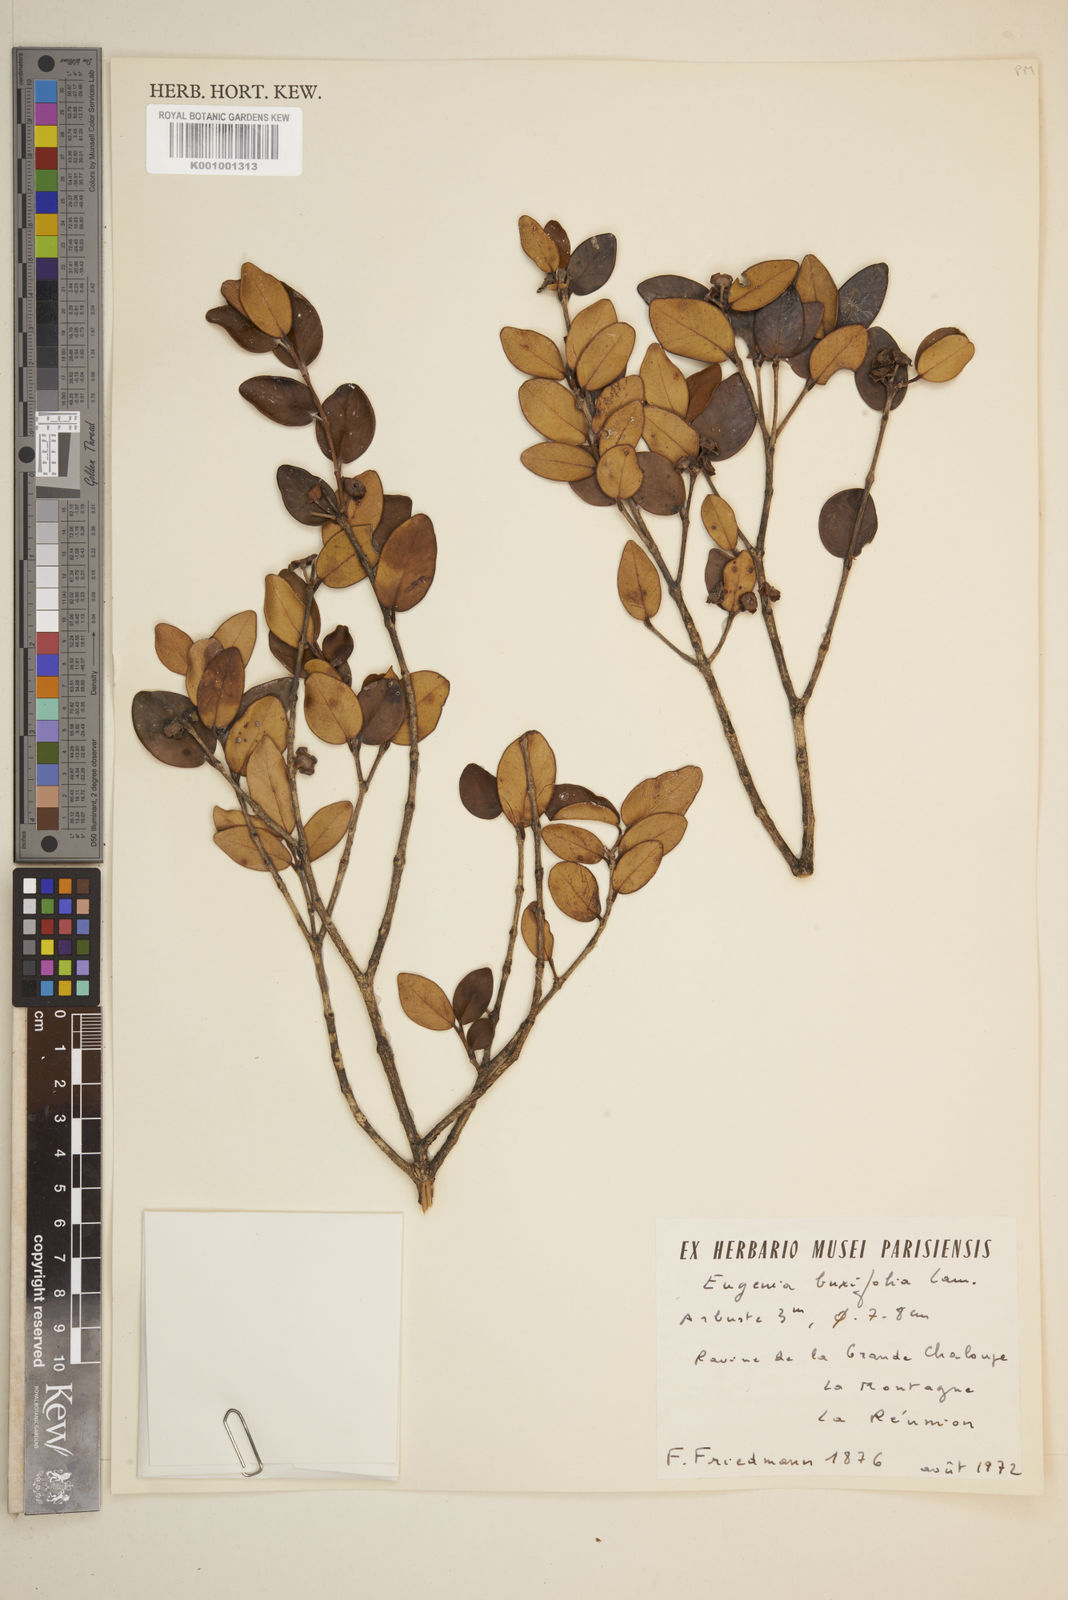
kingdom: Plantae
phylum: Tracheophyta
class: Magnoliopsida
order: Myrtales
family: Myrtaceae
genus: Eugenia
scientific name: Eugenia buxifolia
